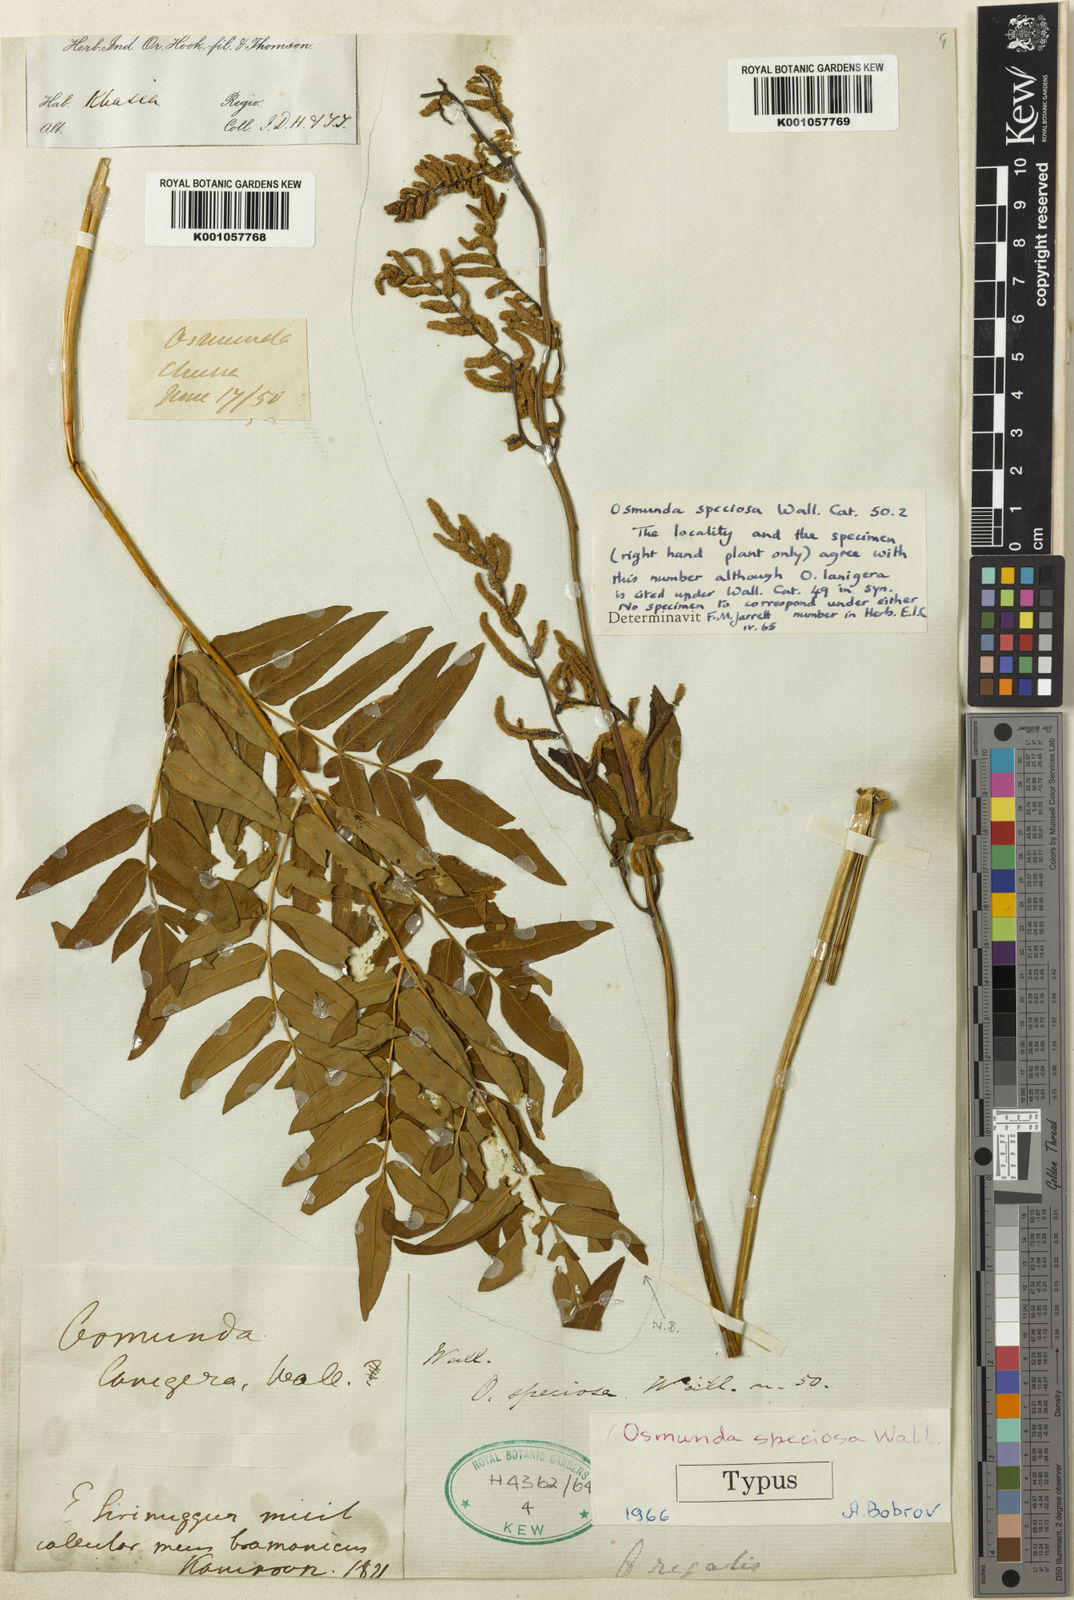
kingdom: Plantae
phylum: Tracheophyta
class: Polypodiopsida
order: Osmundales
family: Osmundaceae
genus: Osmunda
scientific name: Osmunda japonica
